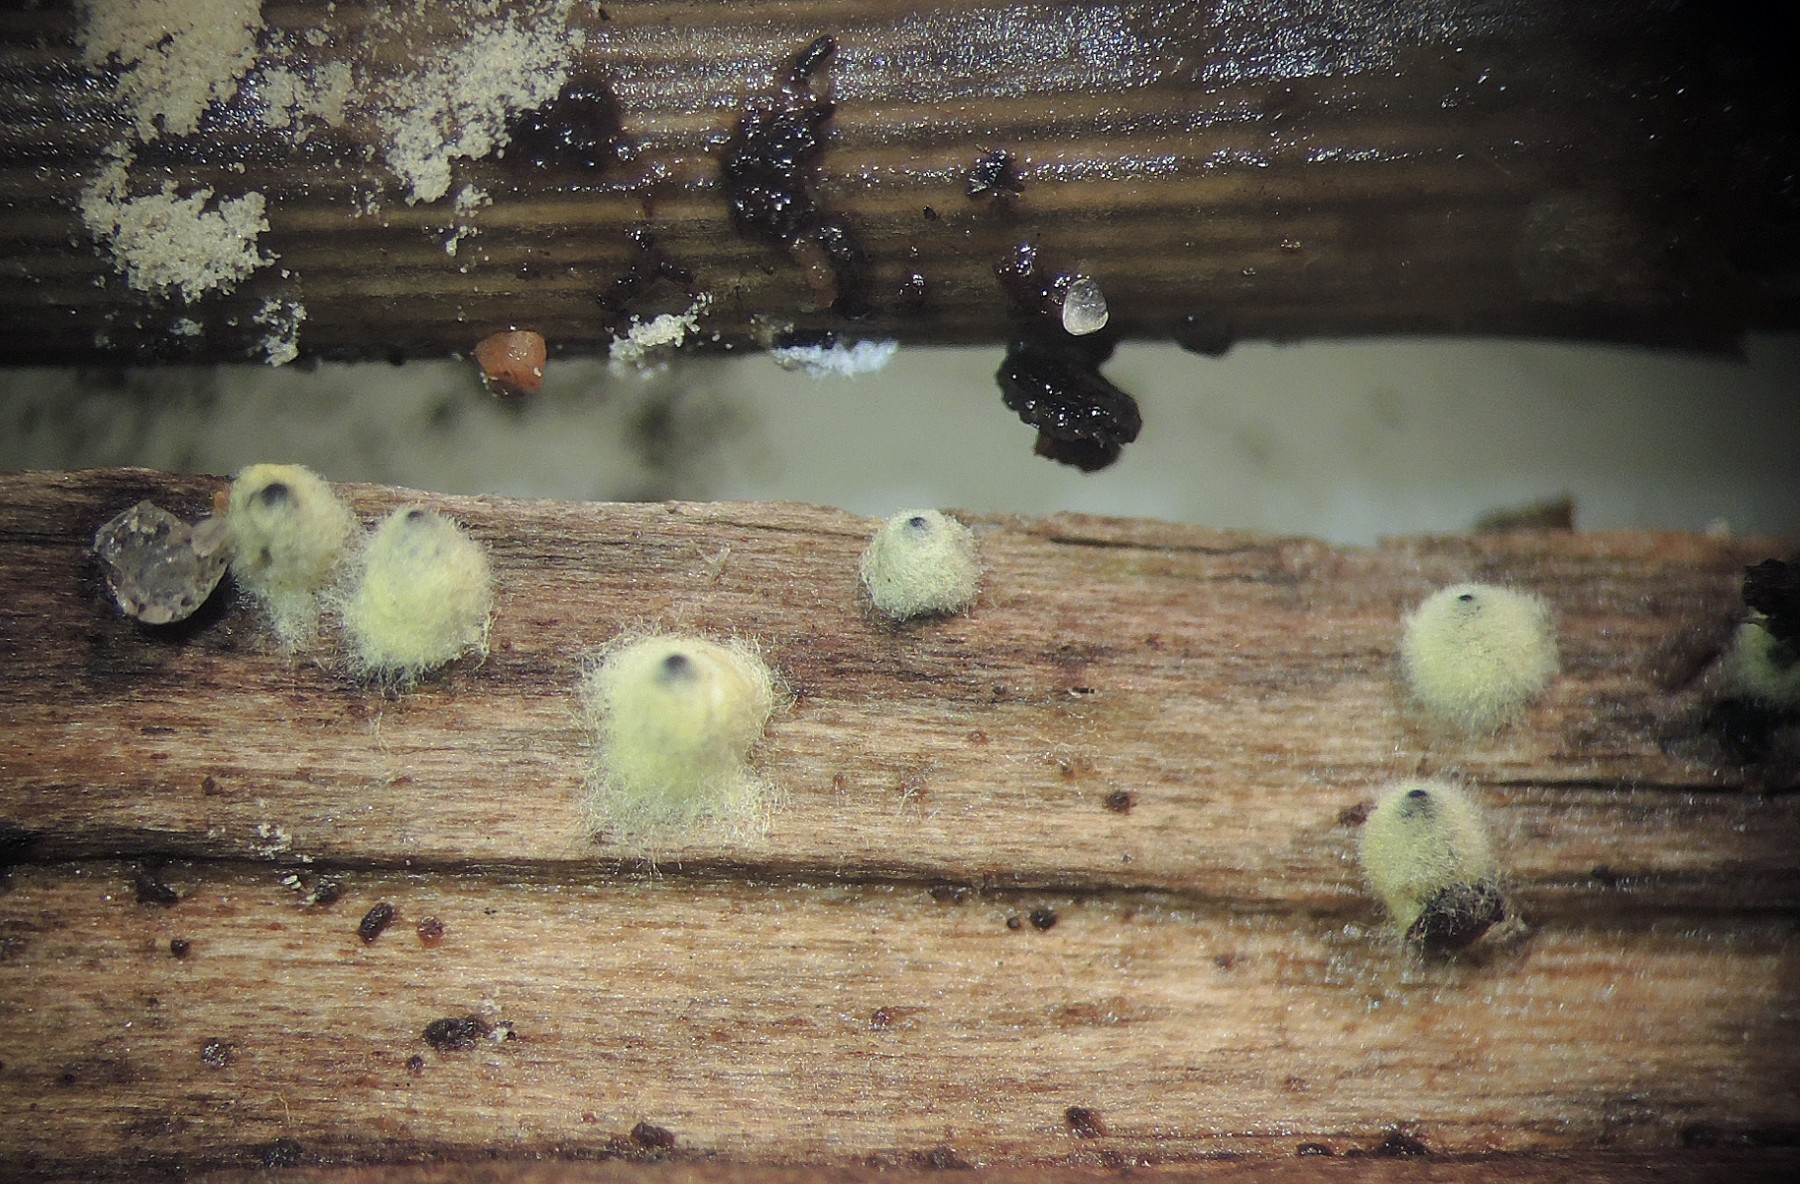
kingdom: Fungi
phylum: Ascomycota
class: Sordariomycetes
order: Sordariales
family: Lasiosphaeriaceae
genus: Lasiosphaeria
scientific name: Lasiosphaeria deviata
